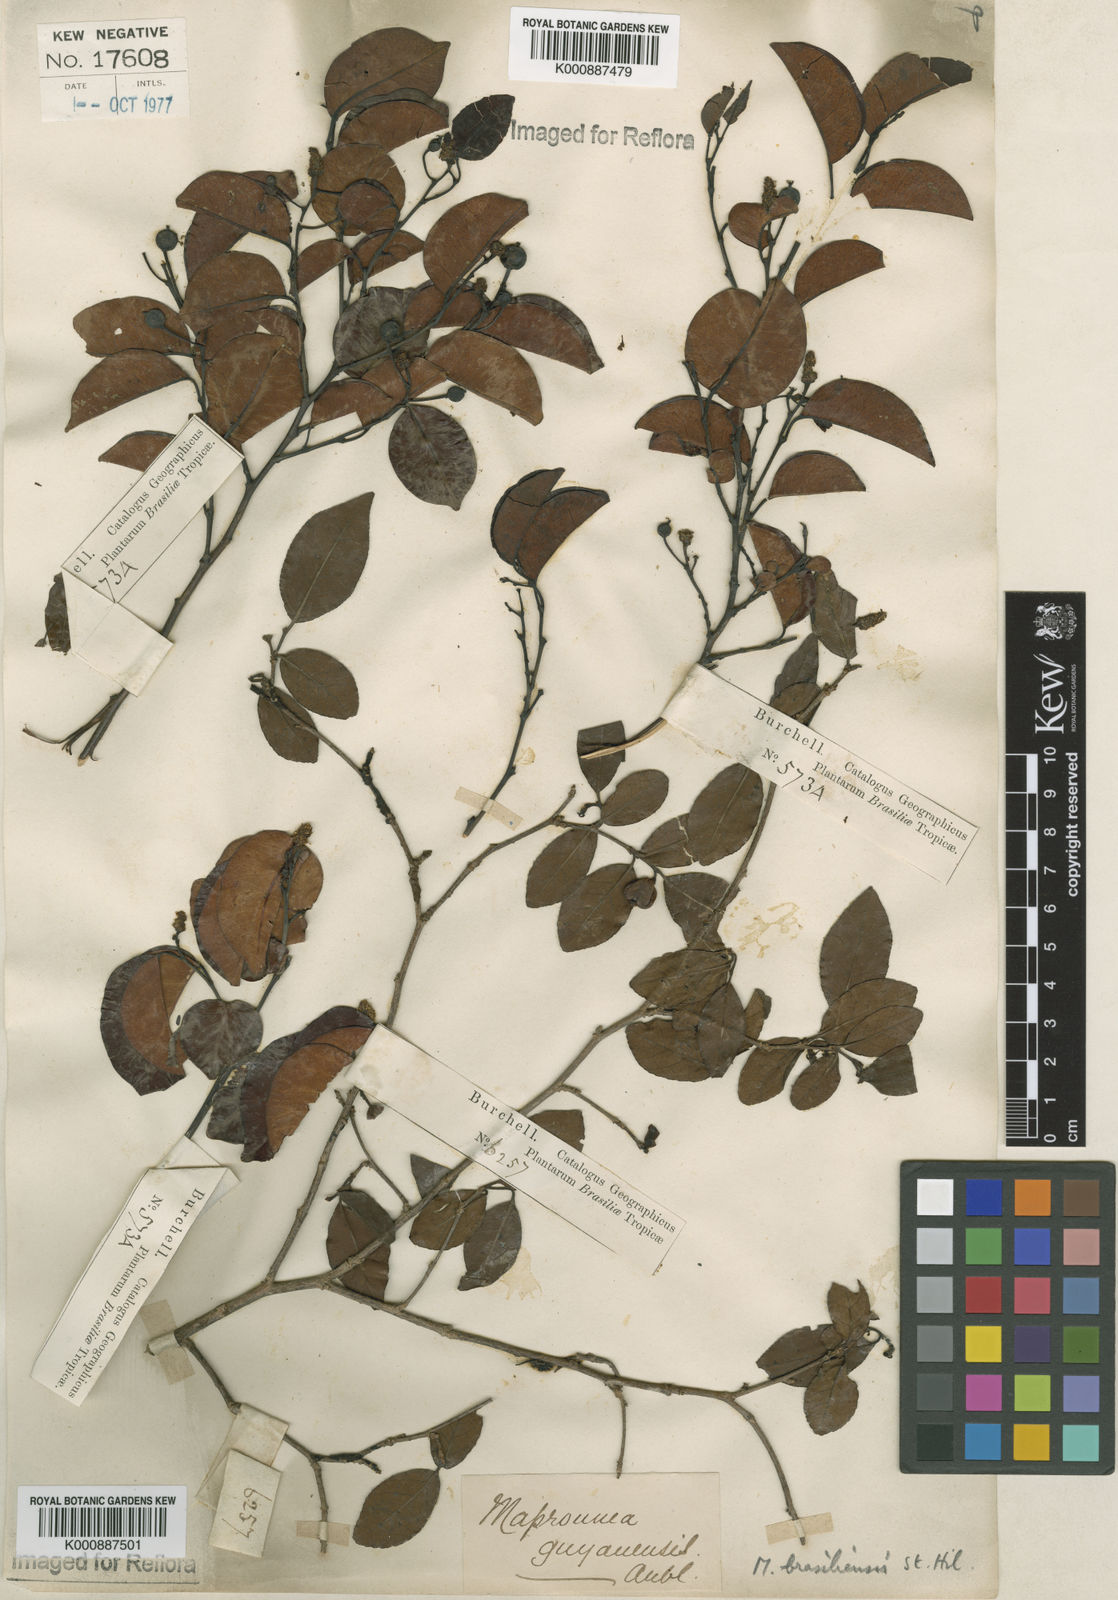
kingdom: Plantae
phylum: Tracheophyta
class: Magnoliopsida
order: Malpighiales
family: Euphorbiaceae
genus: Maprounea
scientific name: Maprounea brasiliensis
